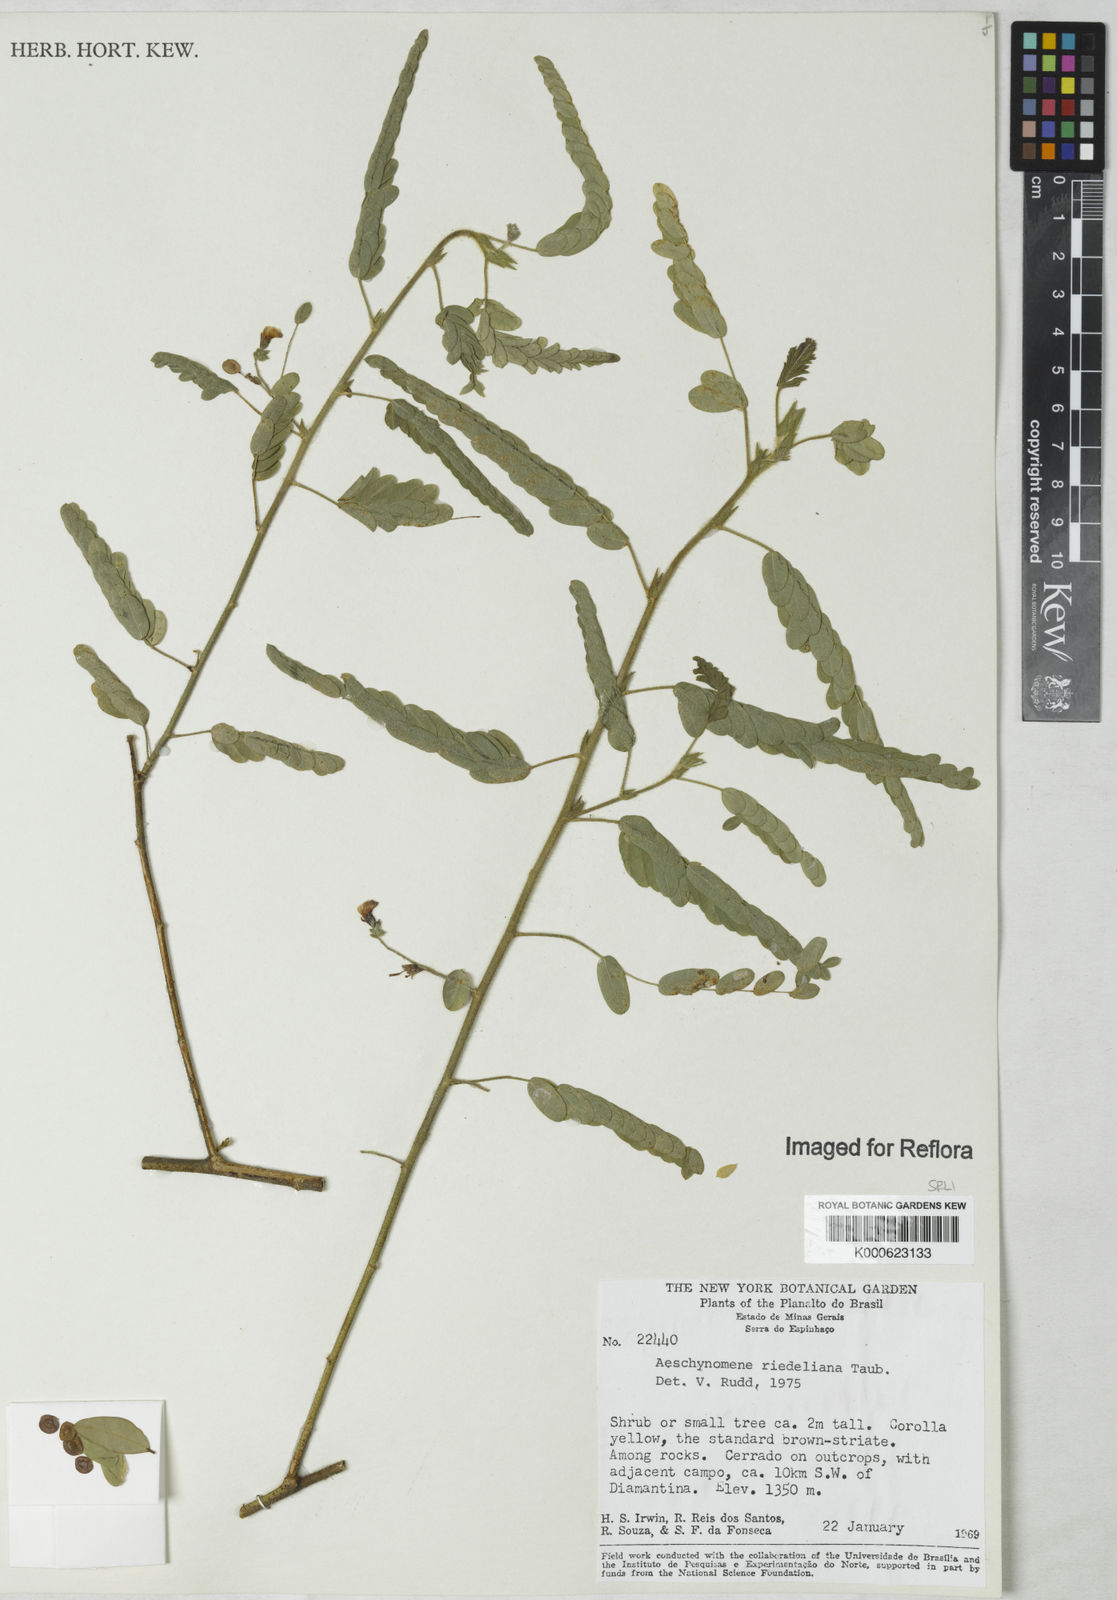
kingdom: Plantae
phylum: Tracheophyta
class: Magnoliopsida
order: Fabales
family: Fabaceae
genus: Ctenodon
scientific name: Ctenodon riedelianus
